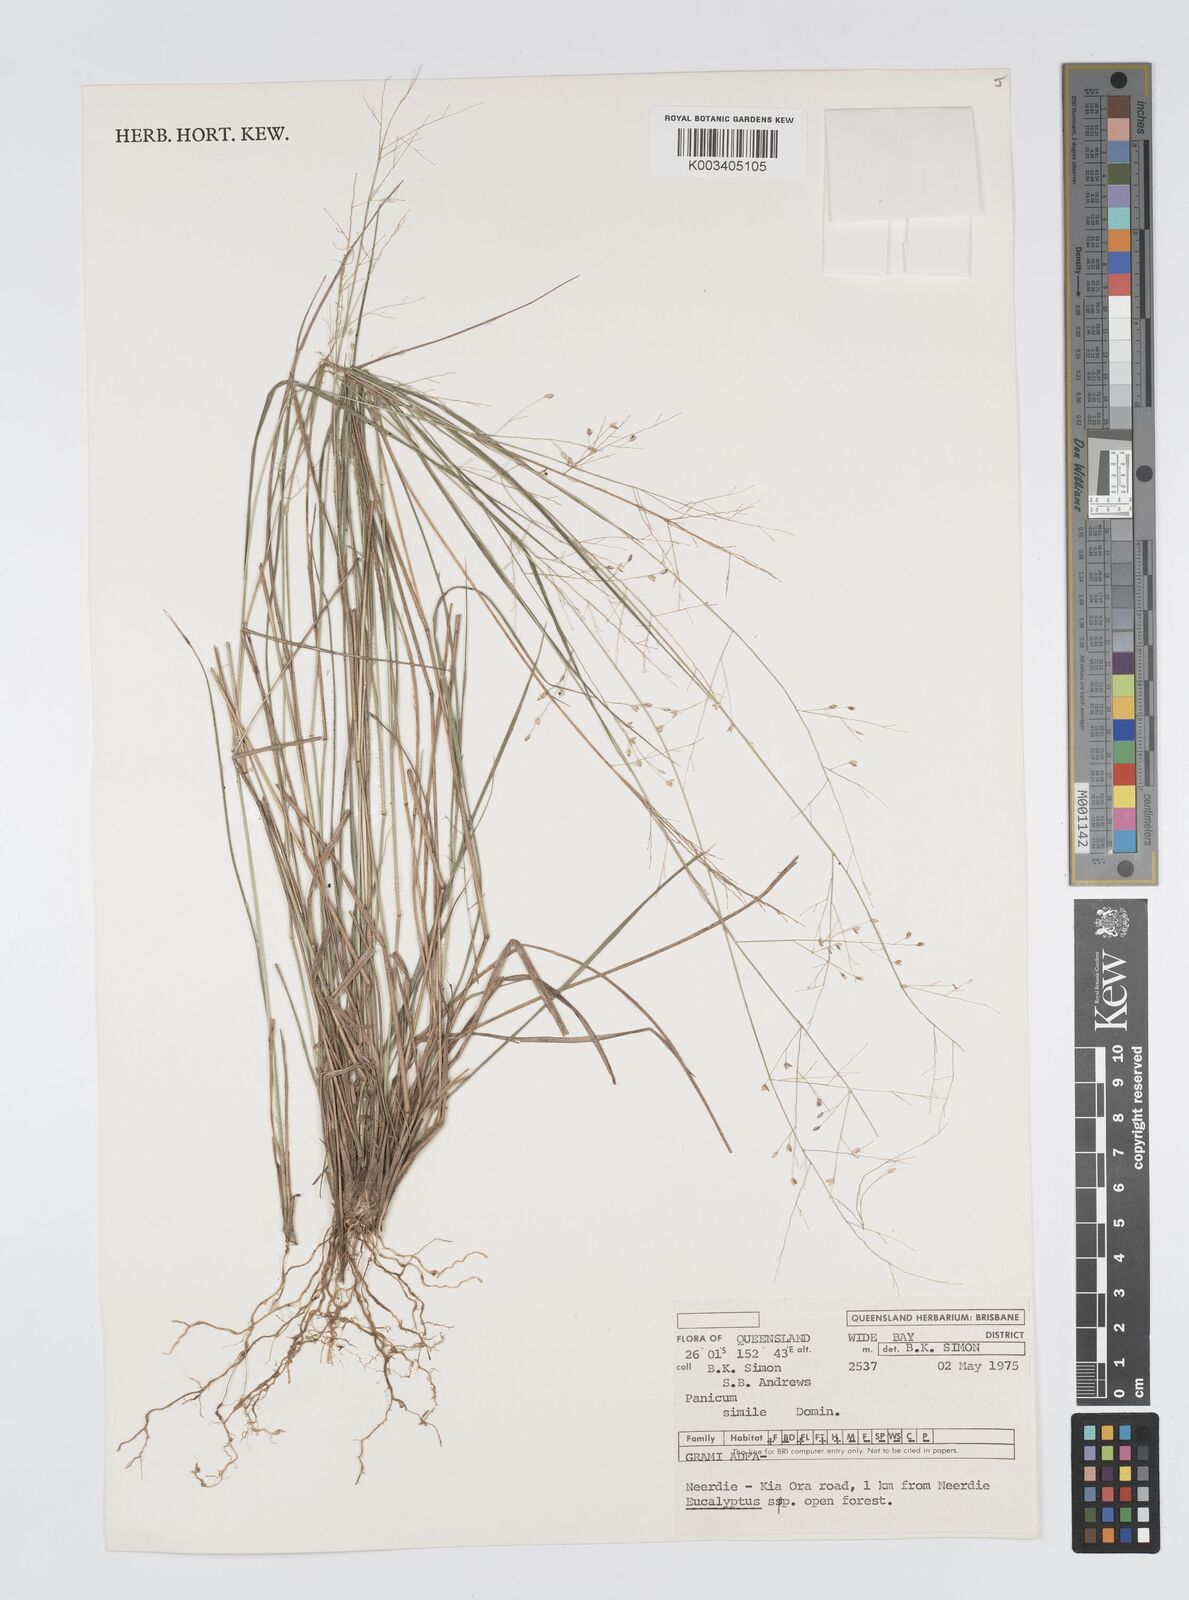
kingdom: Plantae
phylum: Tracheophyta
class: Liliopsida
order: Poales
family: Poaceae
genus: Panicum
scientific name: Panicum simile
